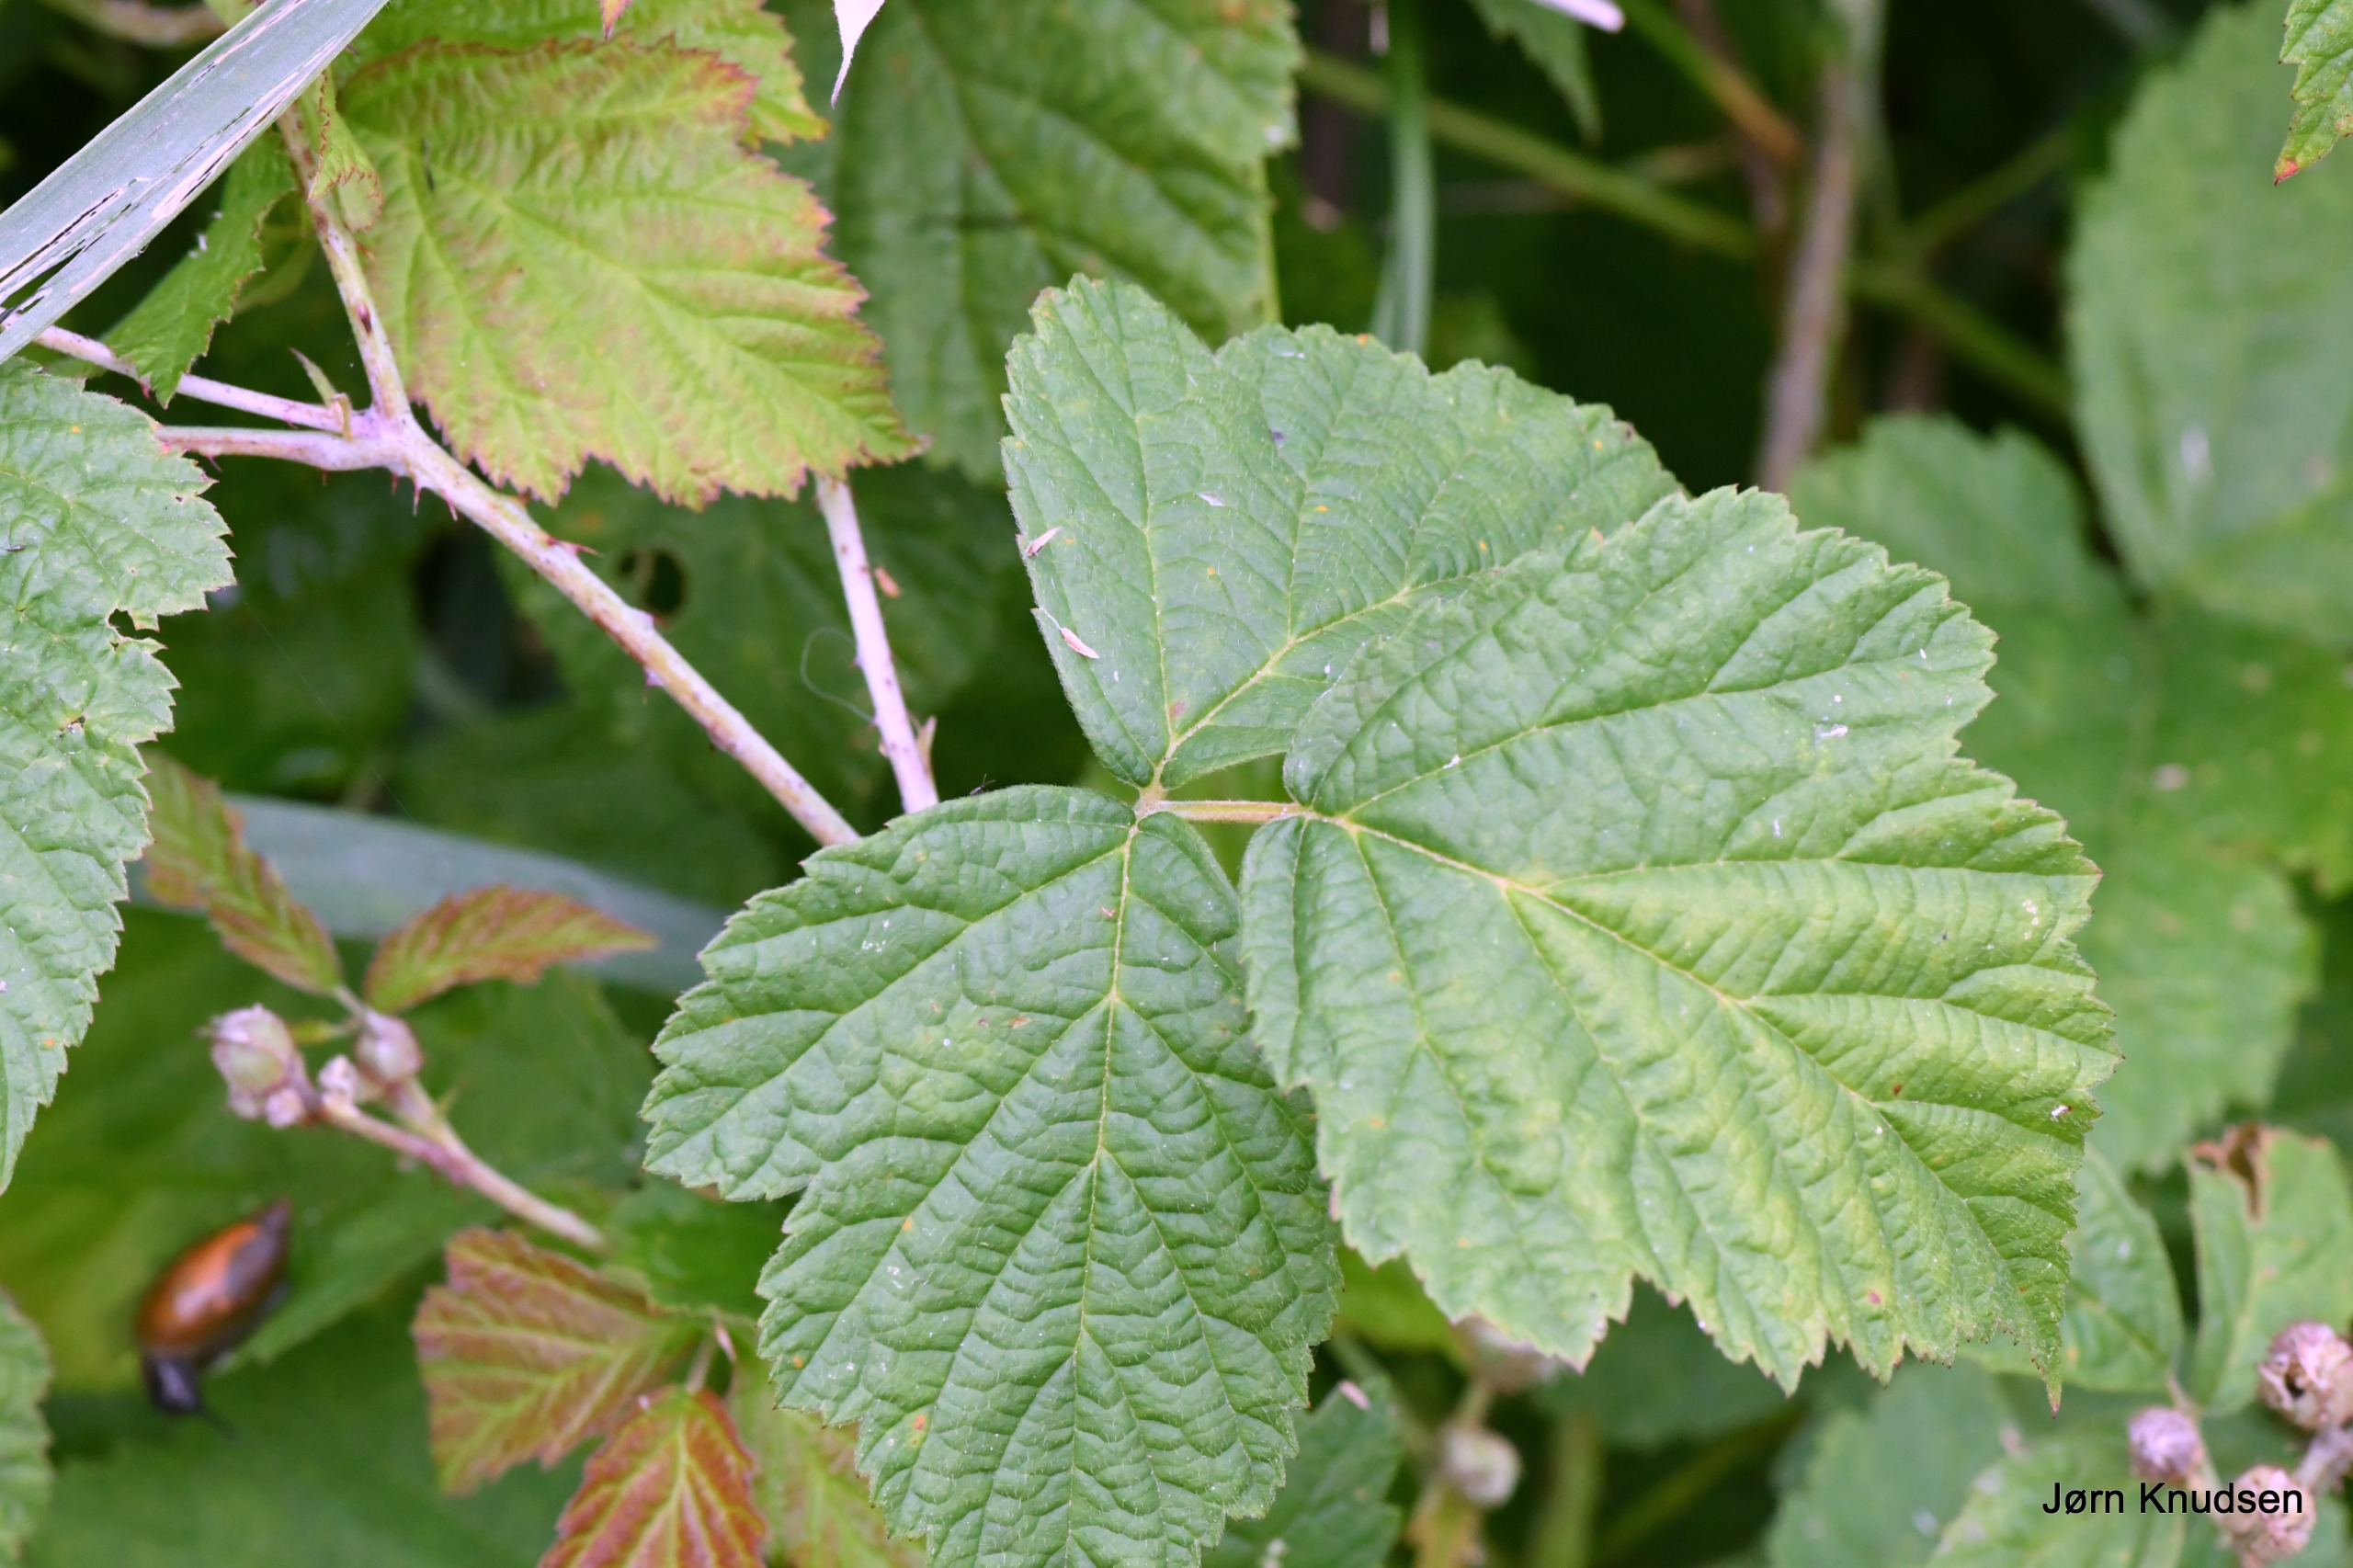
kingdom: Plantae
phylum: Tracheophyta
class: Magnoliopsida
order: Rosales
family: Rosaceae
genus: Rubus
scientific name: Rubus caesius
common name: Korbær
